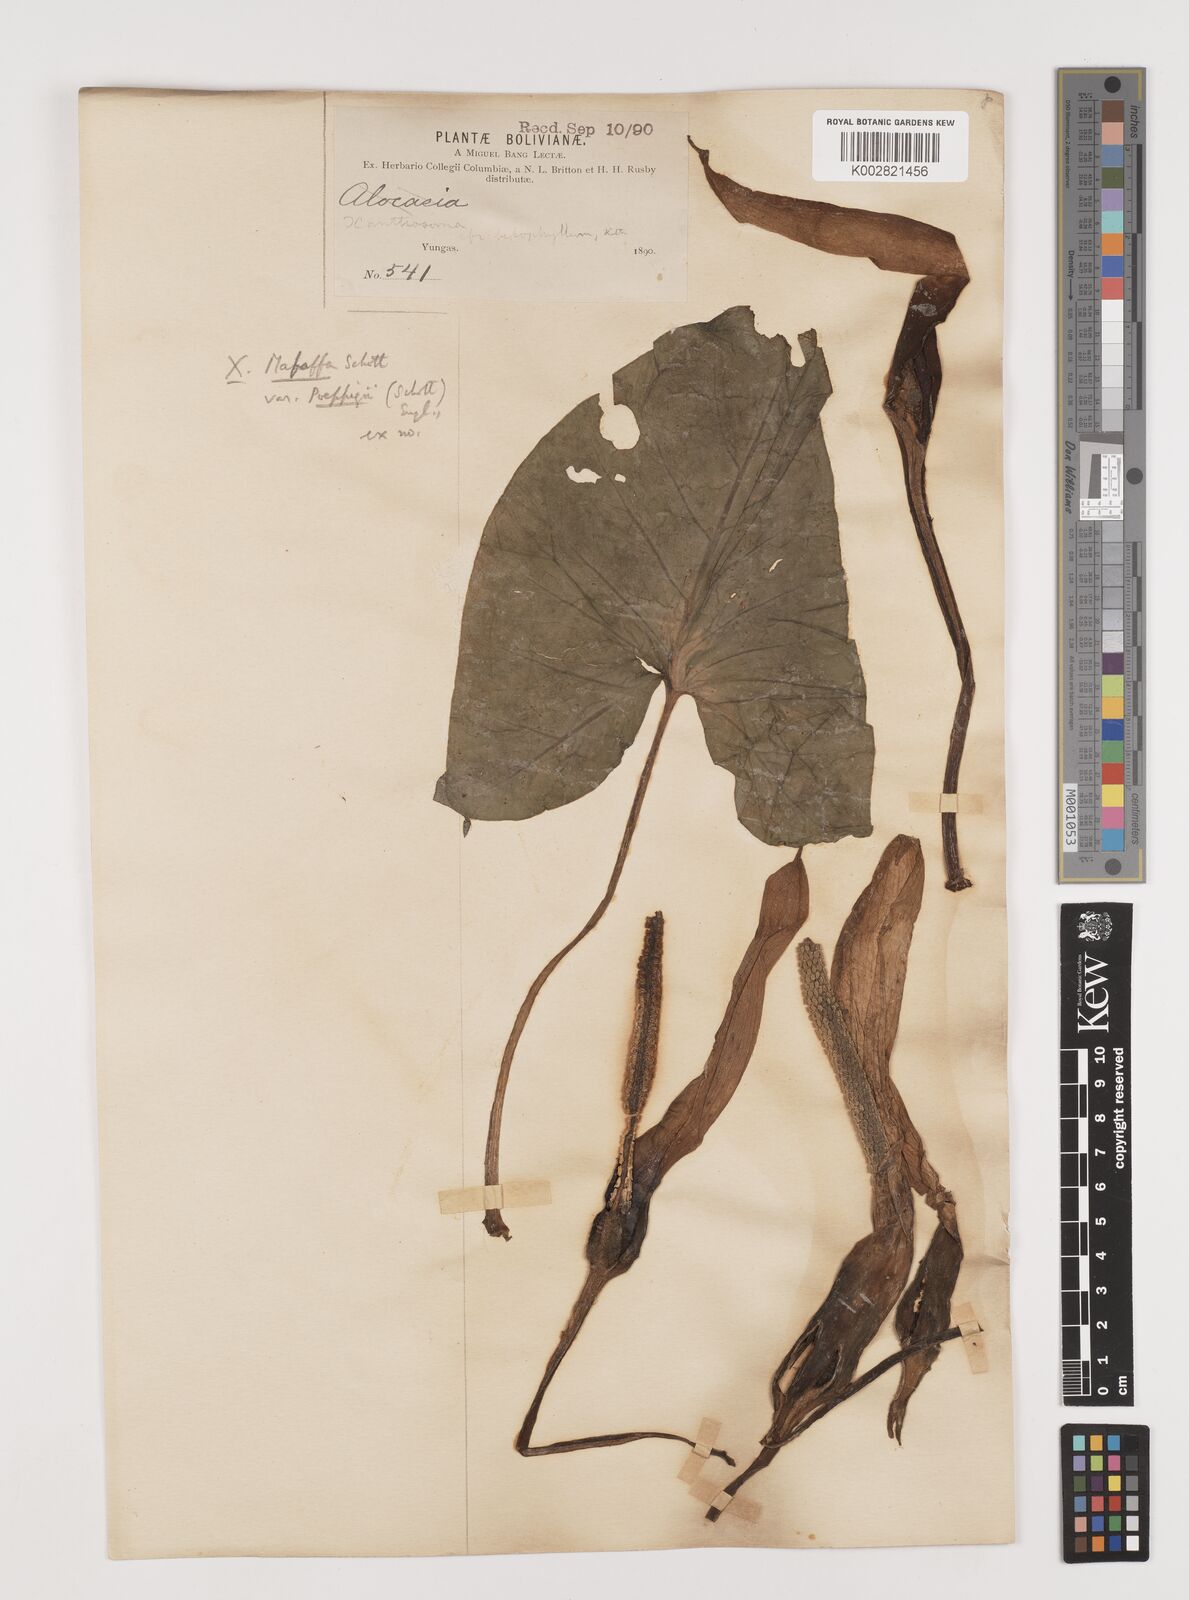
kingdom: Plantae
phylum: Tracheophyta
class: Liliopsida
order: Alismatales
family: Araceae
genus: Xanthosoma
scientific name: Xanthosoma poeppigii
